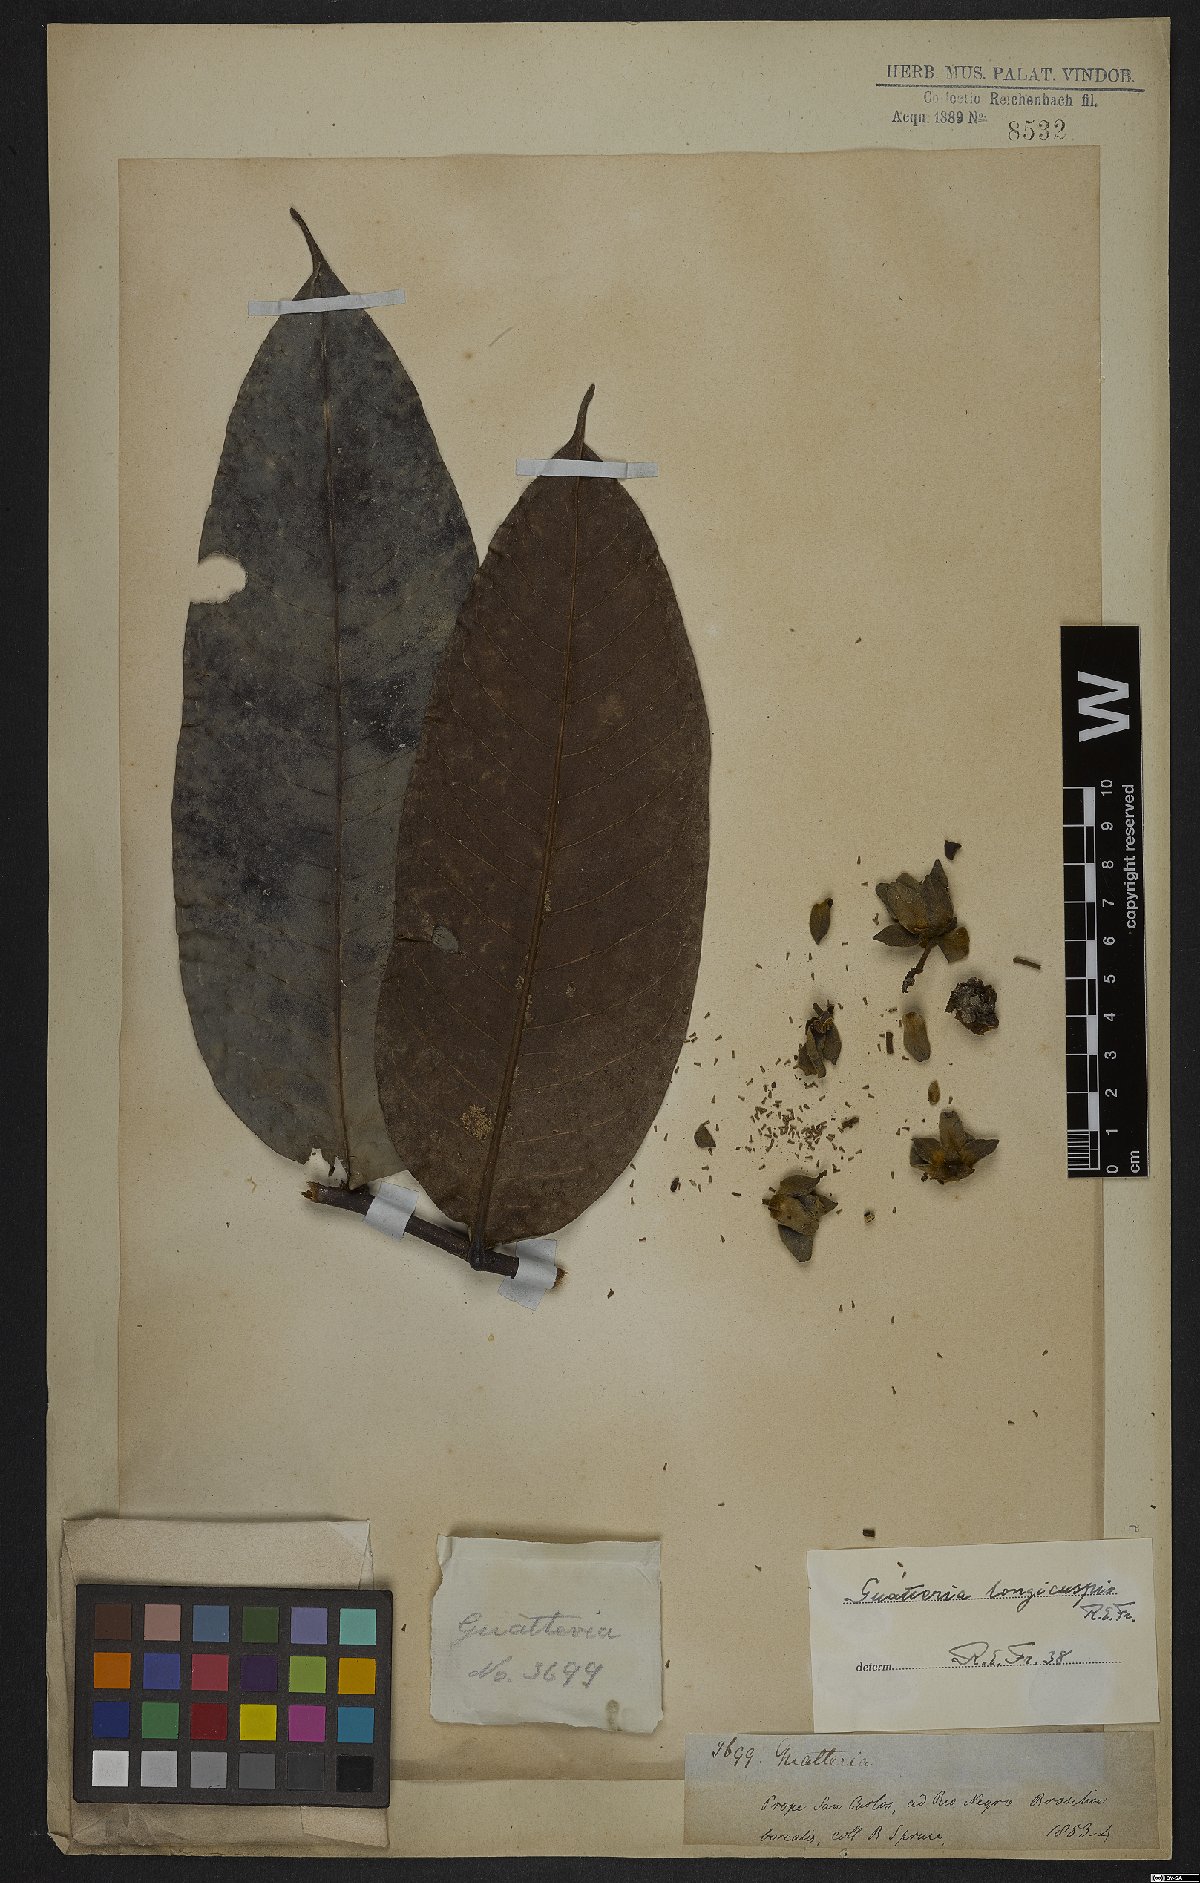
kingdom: Plantae
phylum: Tracheophyta
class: Magnoliopsida
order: Magnoliales
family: Annonaceae
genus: Guatteria
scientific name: Guatteria longicuspis
